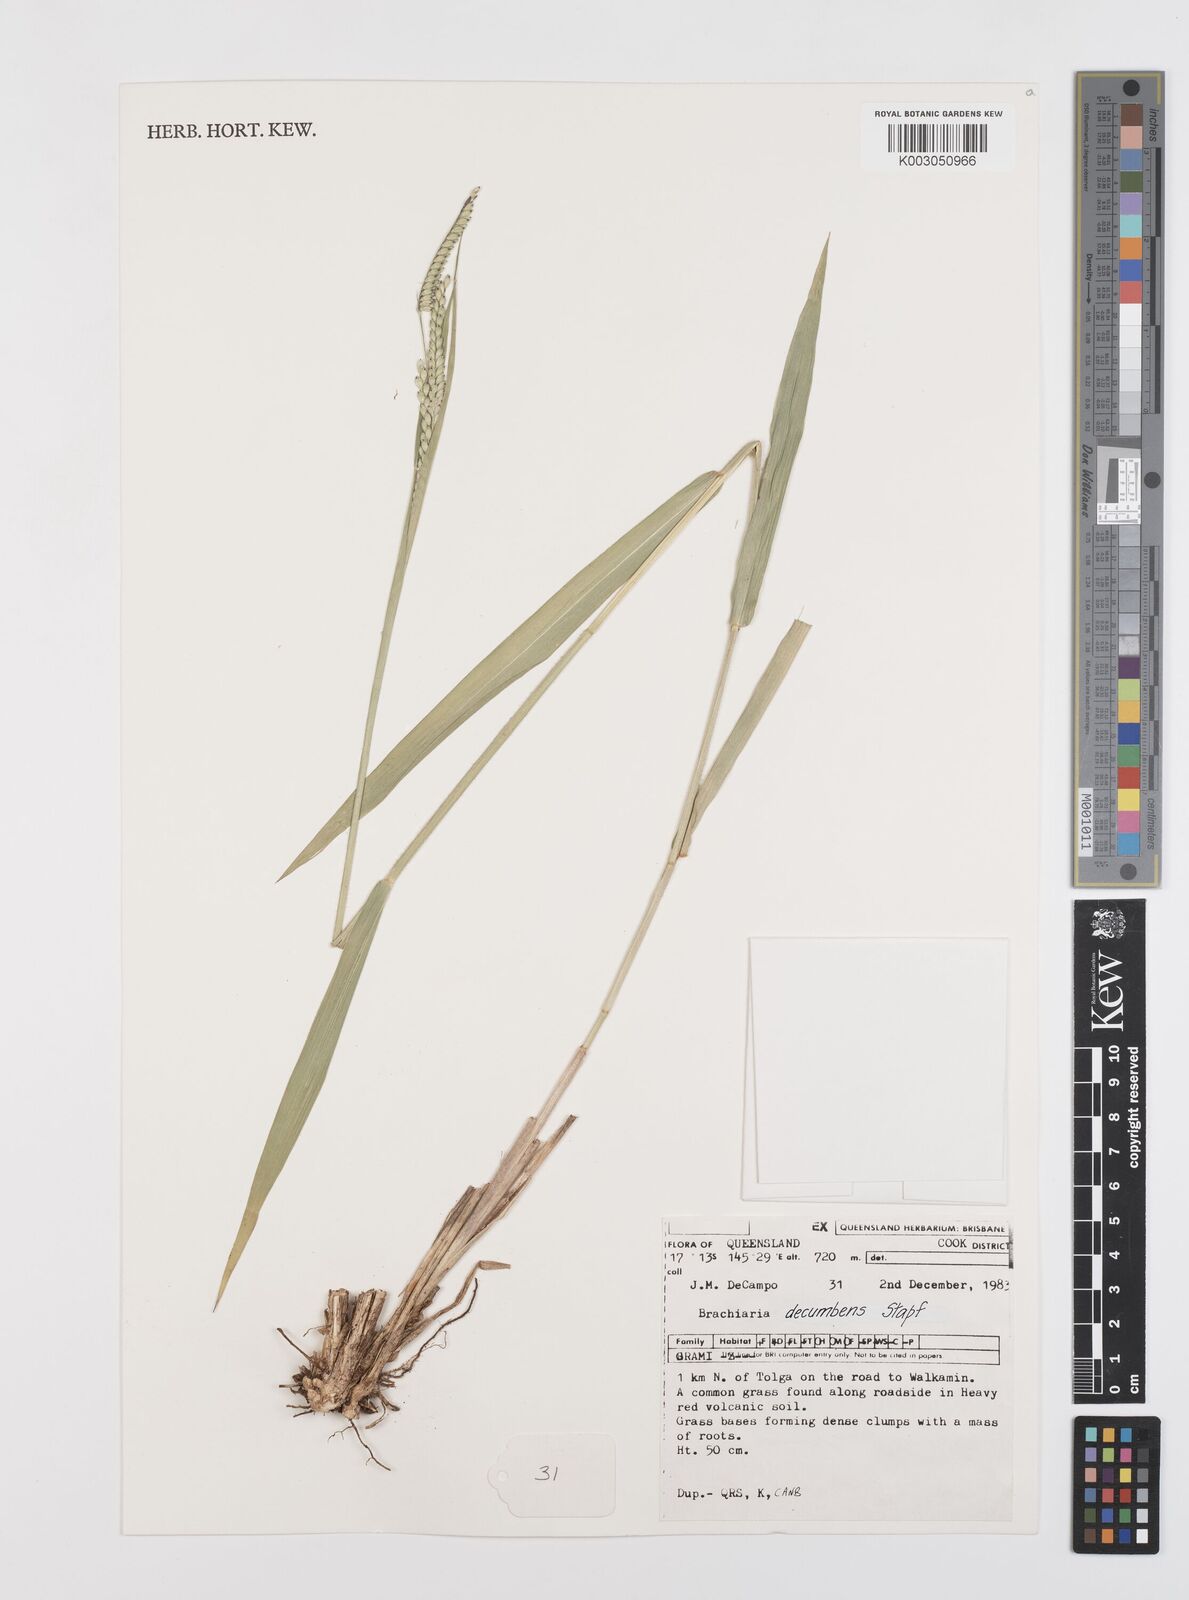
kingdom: Plantae
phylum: Tracheophyta
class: Liliopsida
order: Poales
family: Poaceae
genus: Urochloa
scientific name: Urochloa eminii
